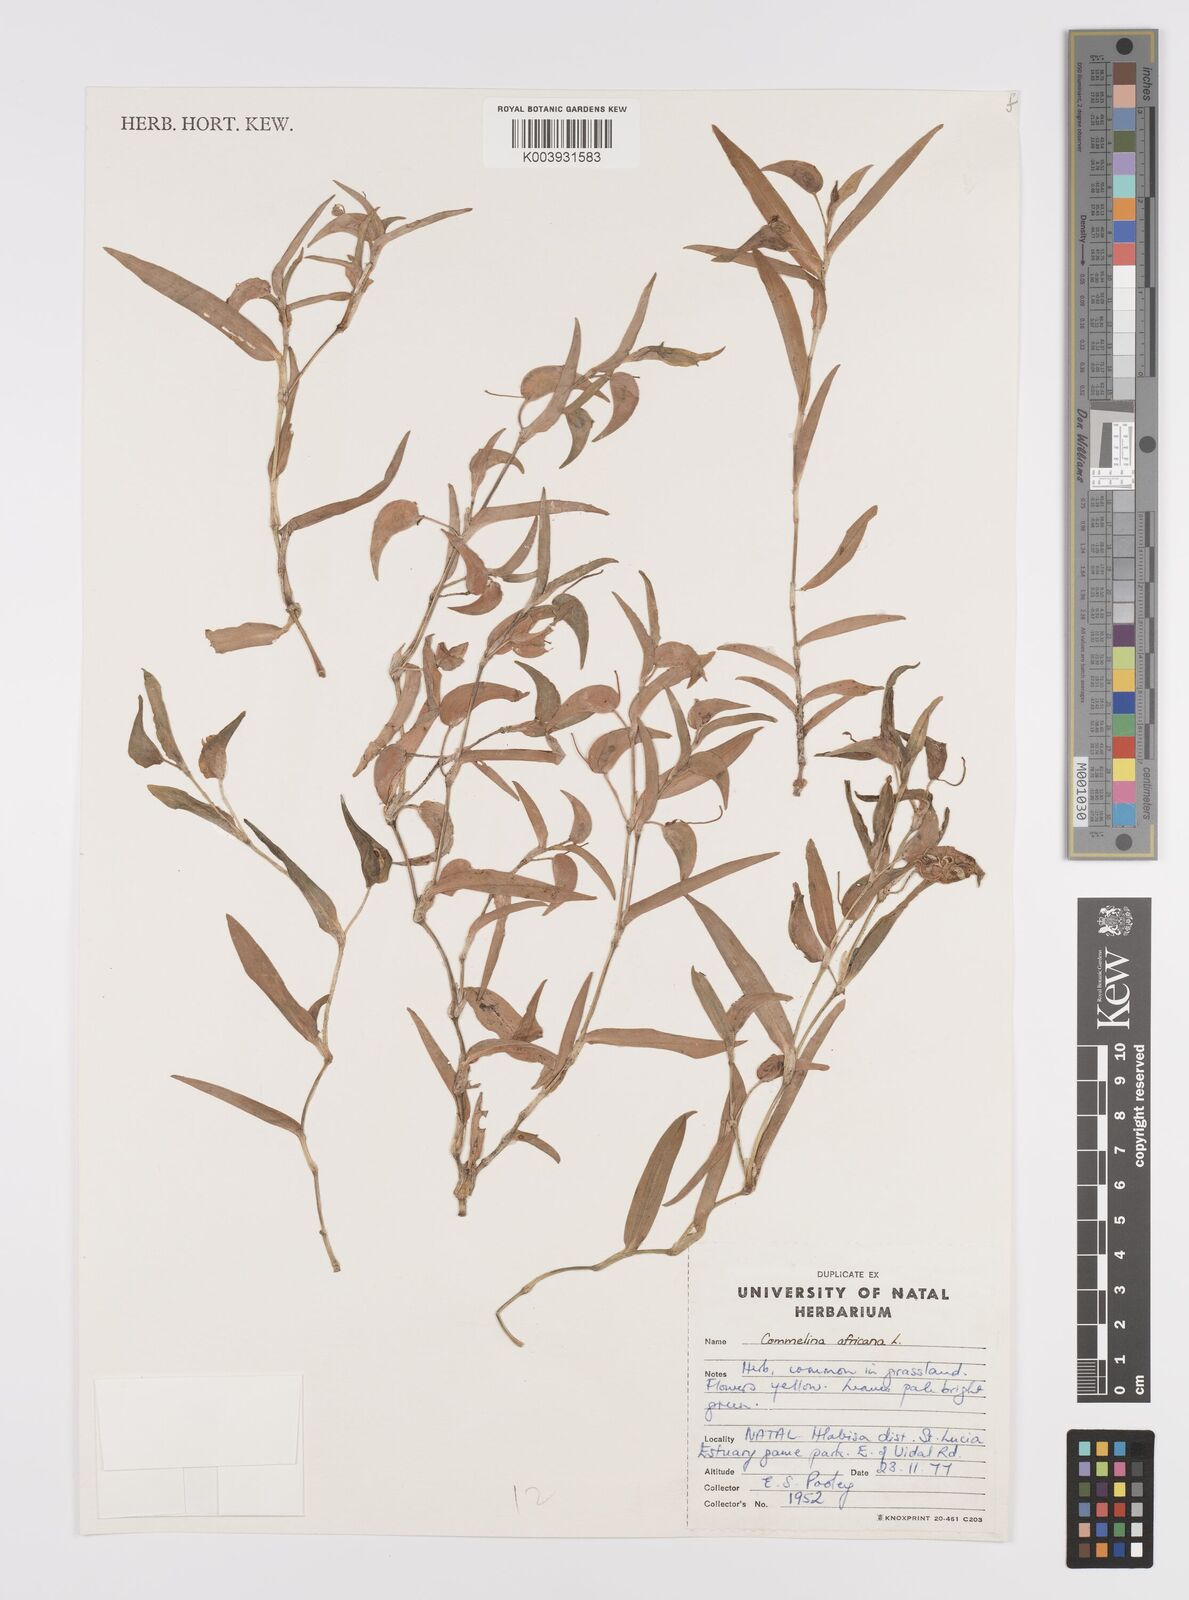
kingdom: Plantae
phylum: Tracheophyta
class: Liliopsida
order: Commelinales
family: Commelinaceae
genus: Commelina
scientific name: Commelina africana
